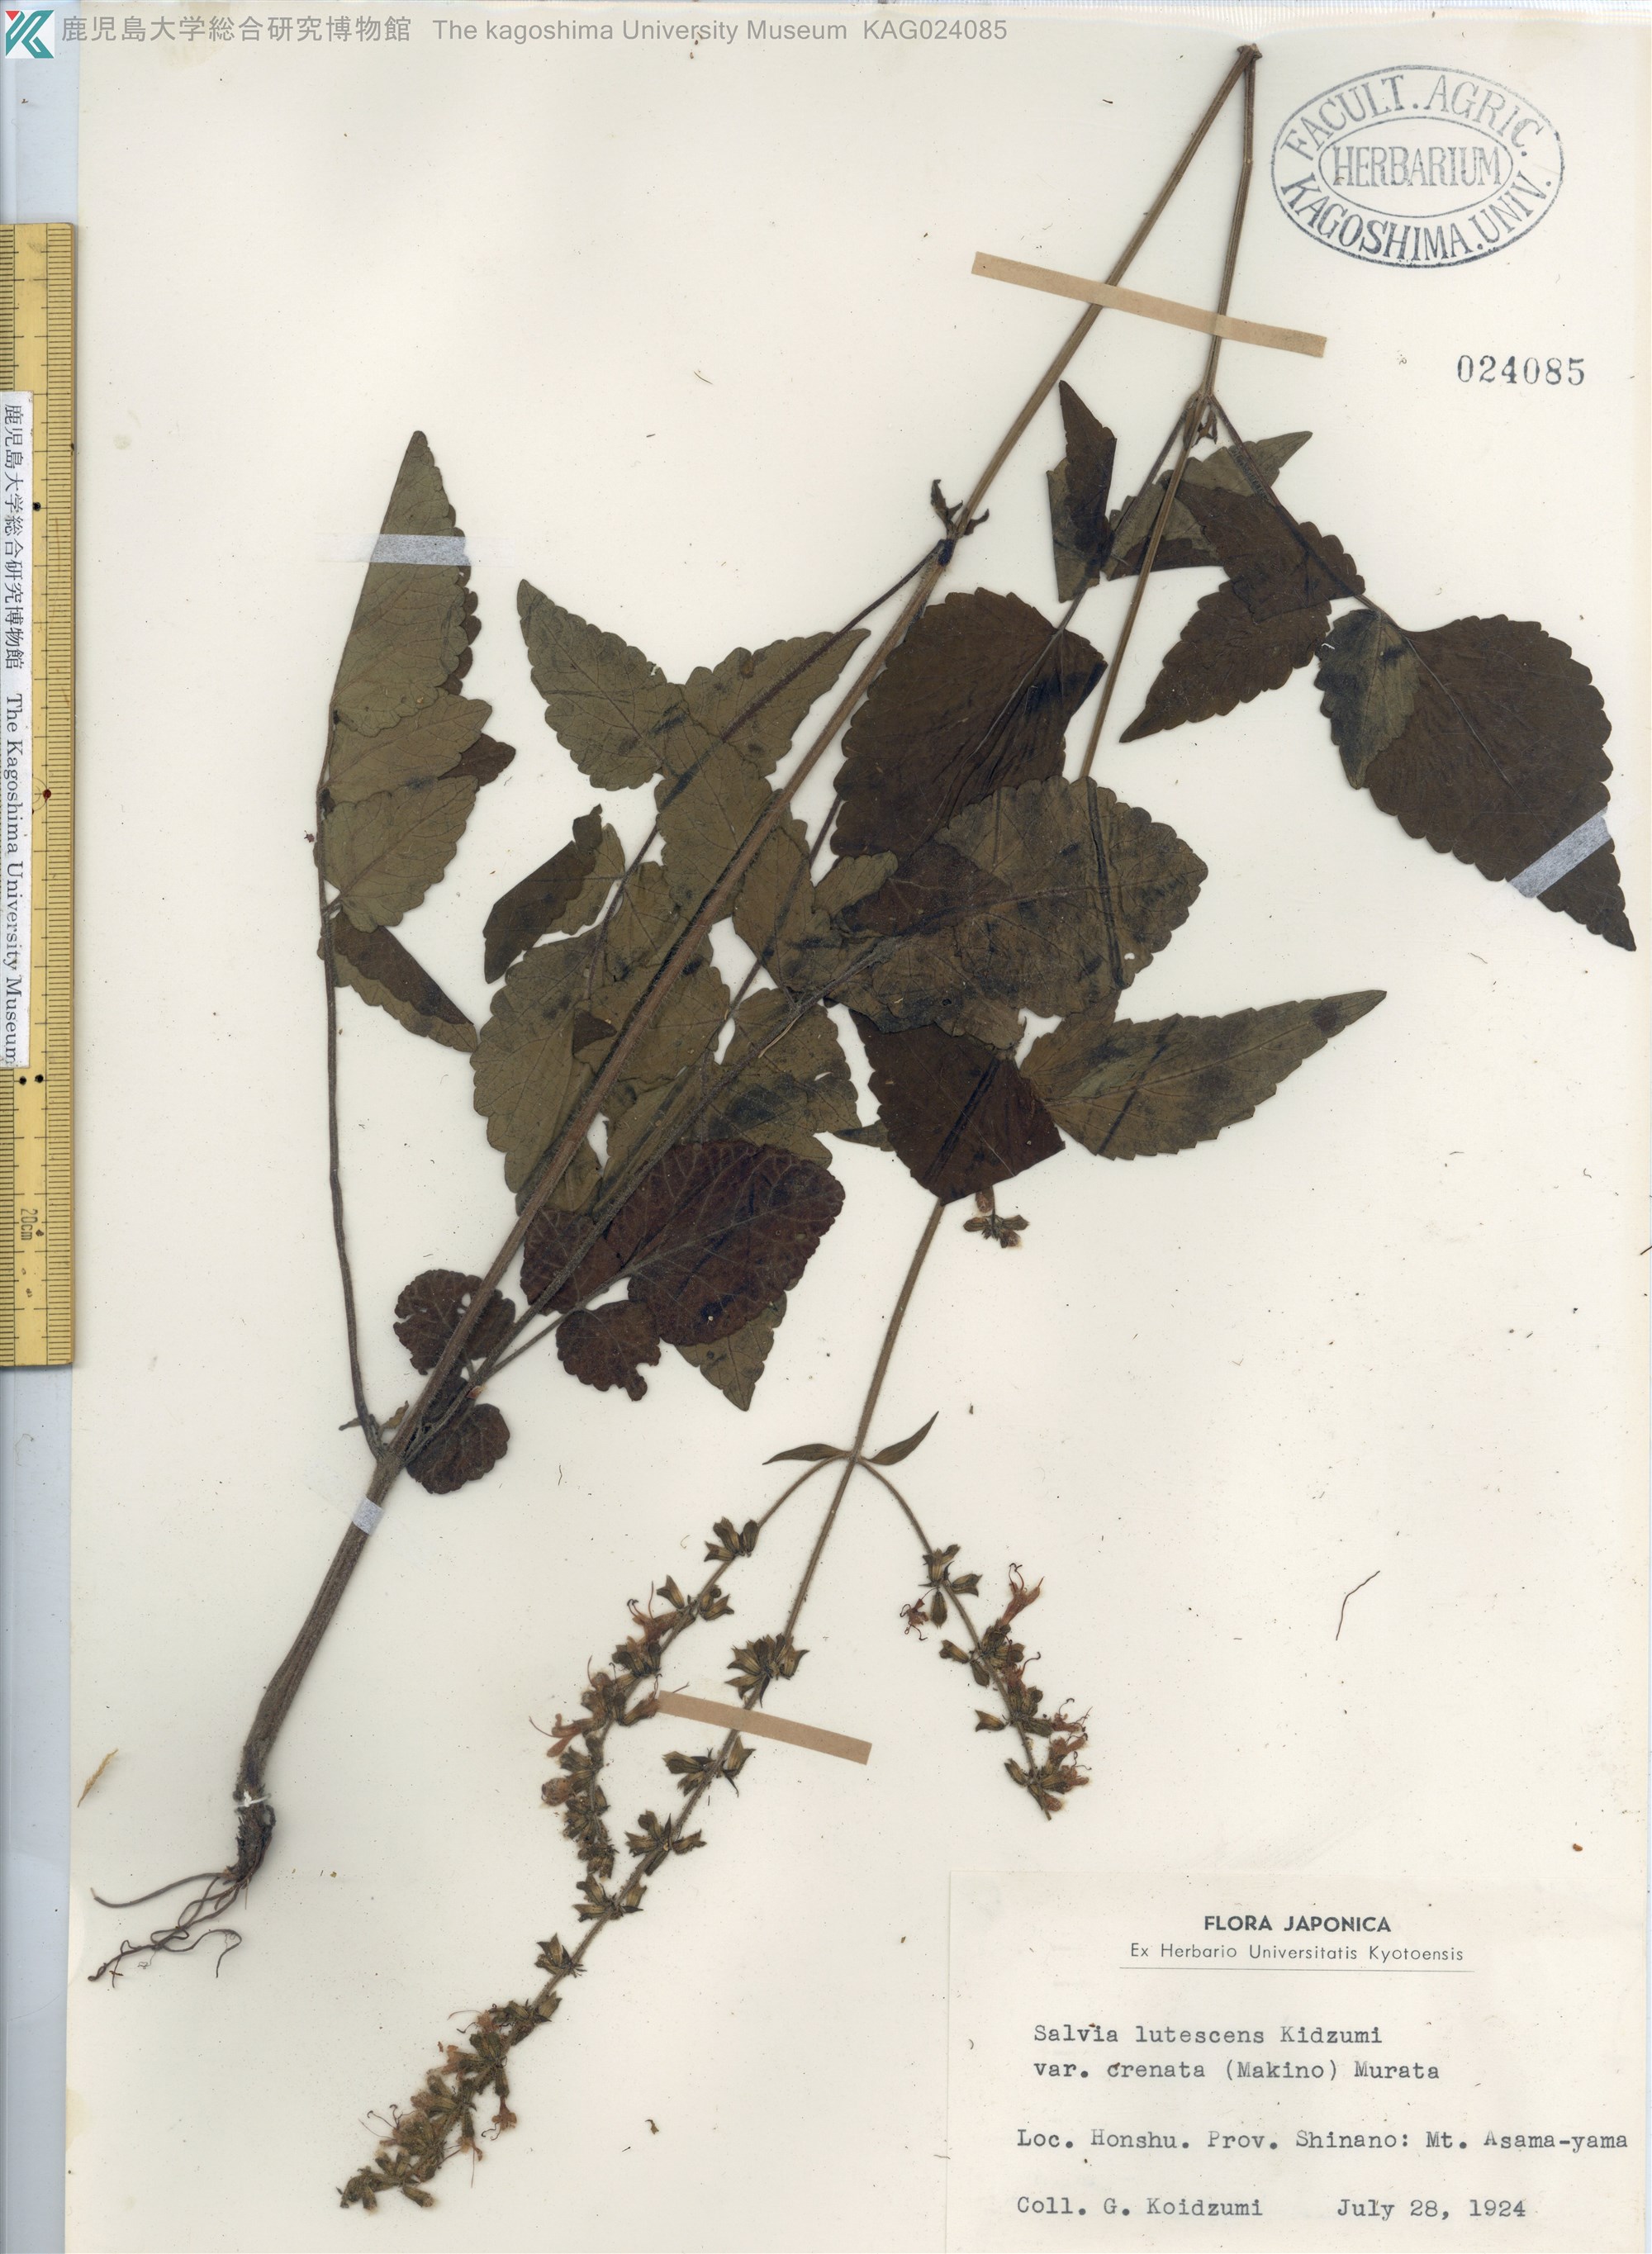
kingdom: Plantae
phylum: Tracheophyta
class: Magnoliopsida
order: Lamiales
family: Lamiaceae
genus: Salvia
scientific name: Salvia lutescens
